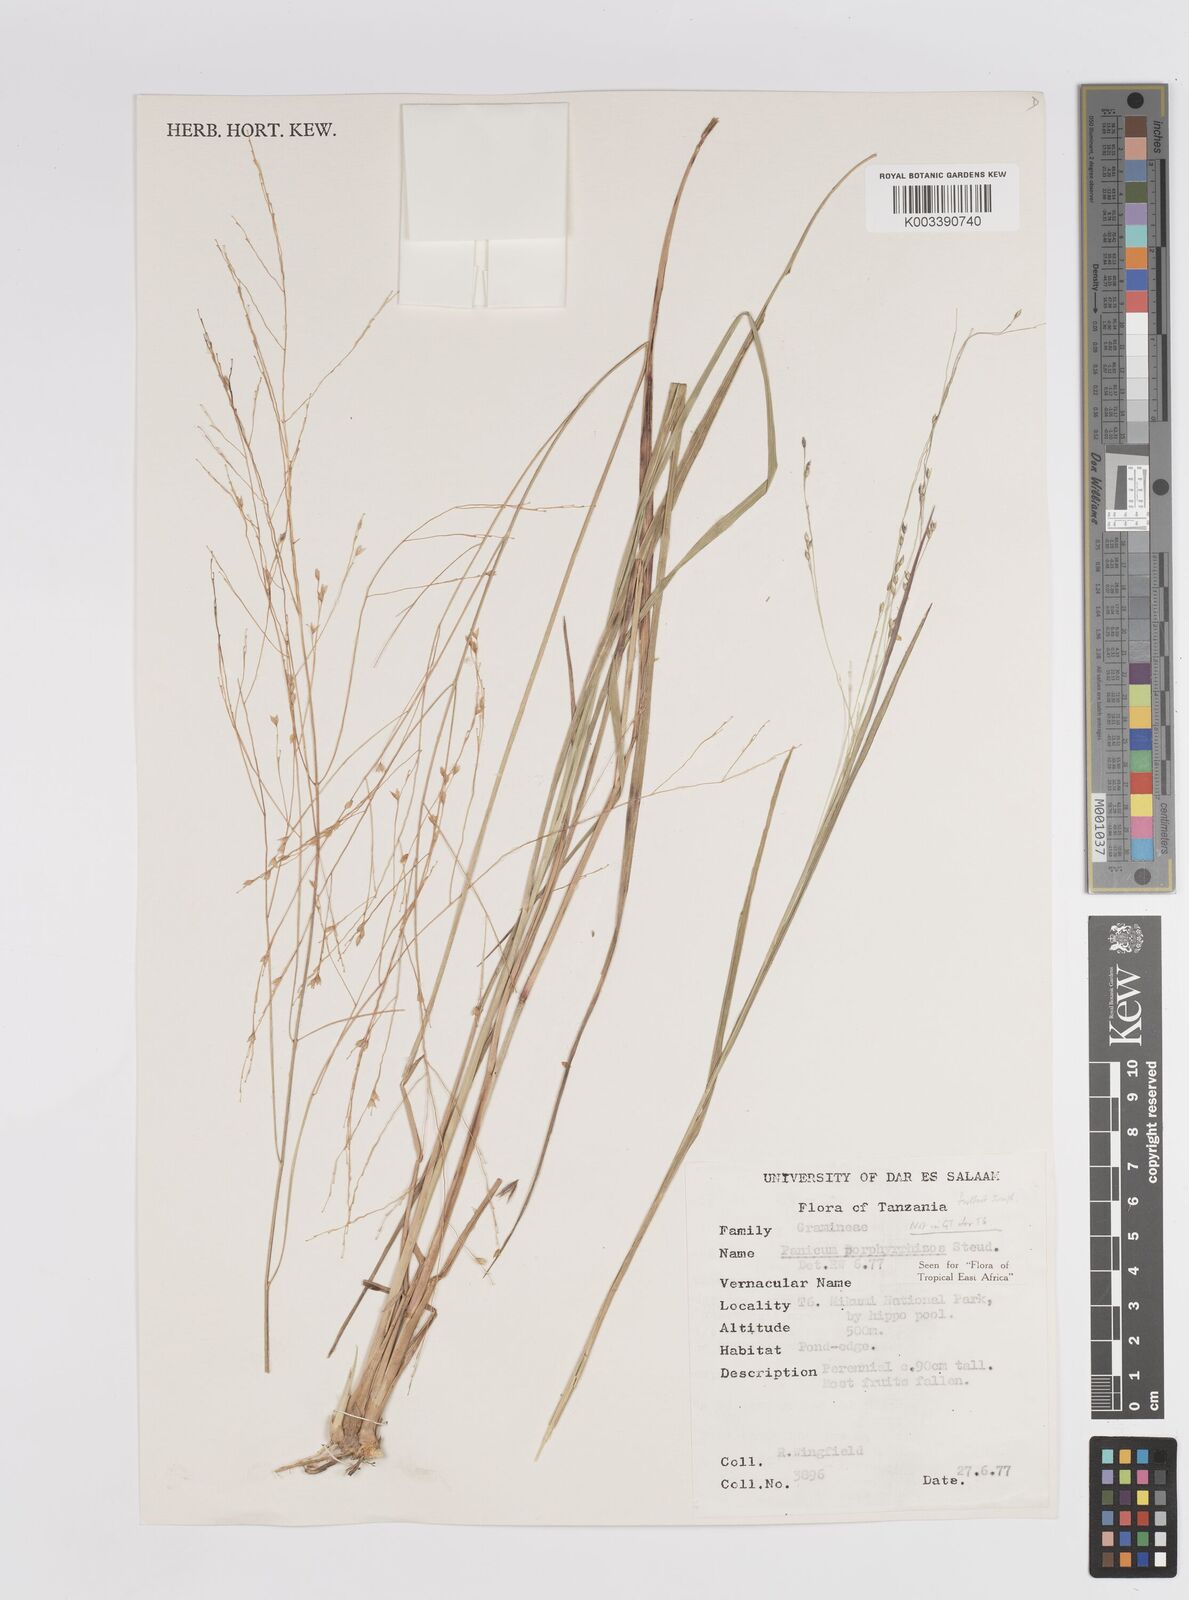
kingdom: Plantae
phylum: Tracheophyta
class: Liliopsida
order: Poales
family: Poaceae
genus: Panicum
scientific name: Panicum porphyrrhizos
